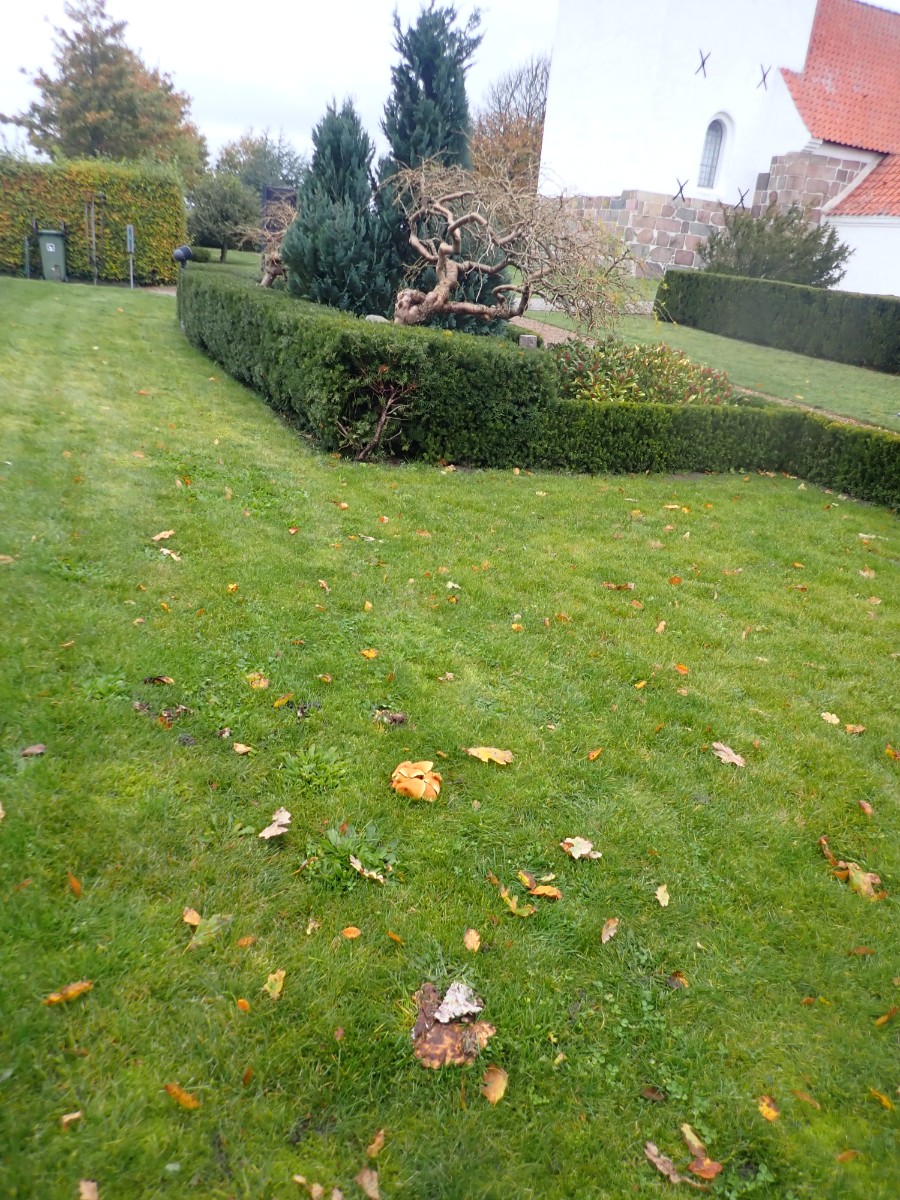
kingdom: Fungi
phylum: Basidiomycota
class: Agaricomycetes
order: Polyporales
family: Meripilaceae
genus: Meripilus
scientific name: Meripilus giganteus
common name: kæmpeporesvamp
